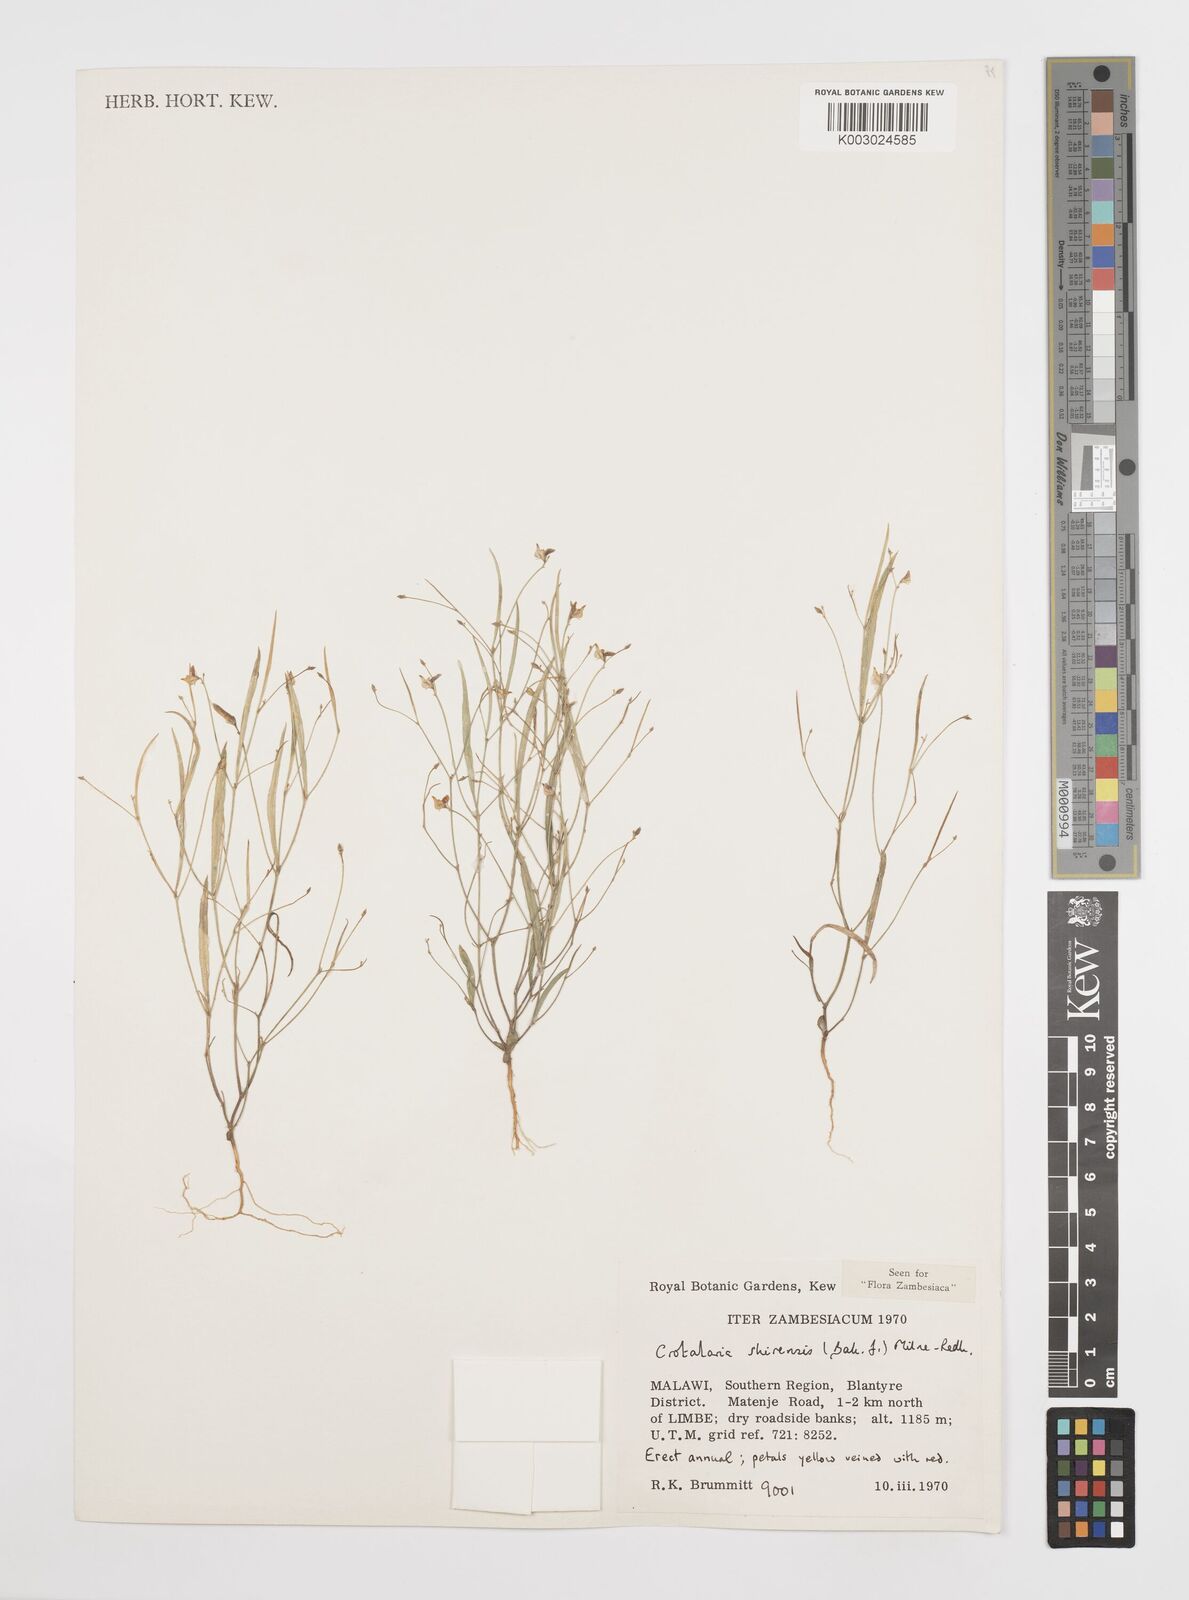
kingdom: Plantae
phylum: Tracheophyta
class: Magnoliopsida
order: Fabales
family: Fabaceae
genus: Crotalaria
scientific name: Crotalaria shirensis
